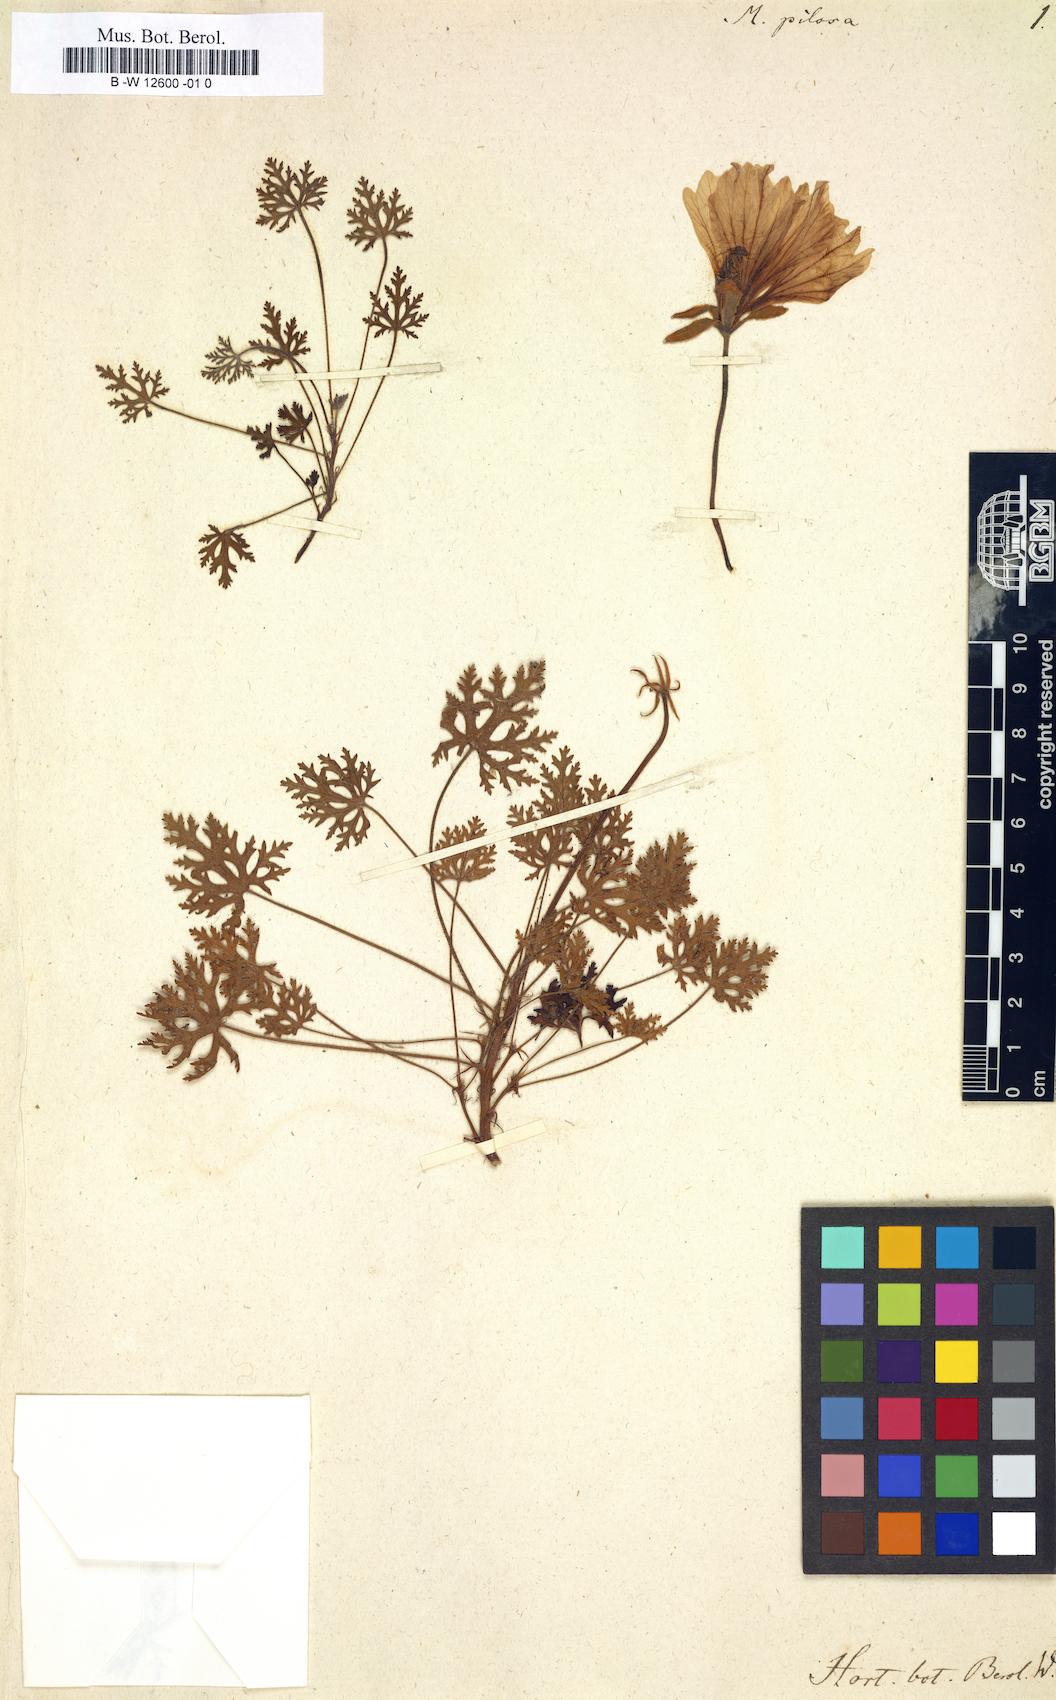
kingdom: Plantae
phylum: Tracheophyta
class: Magnoliopsida
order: Geraniales
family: Geraniaceae
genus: Monsonia
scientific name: Monsonia speciosa
